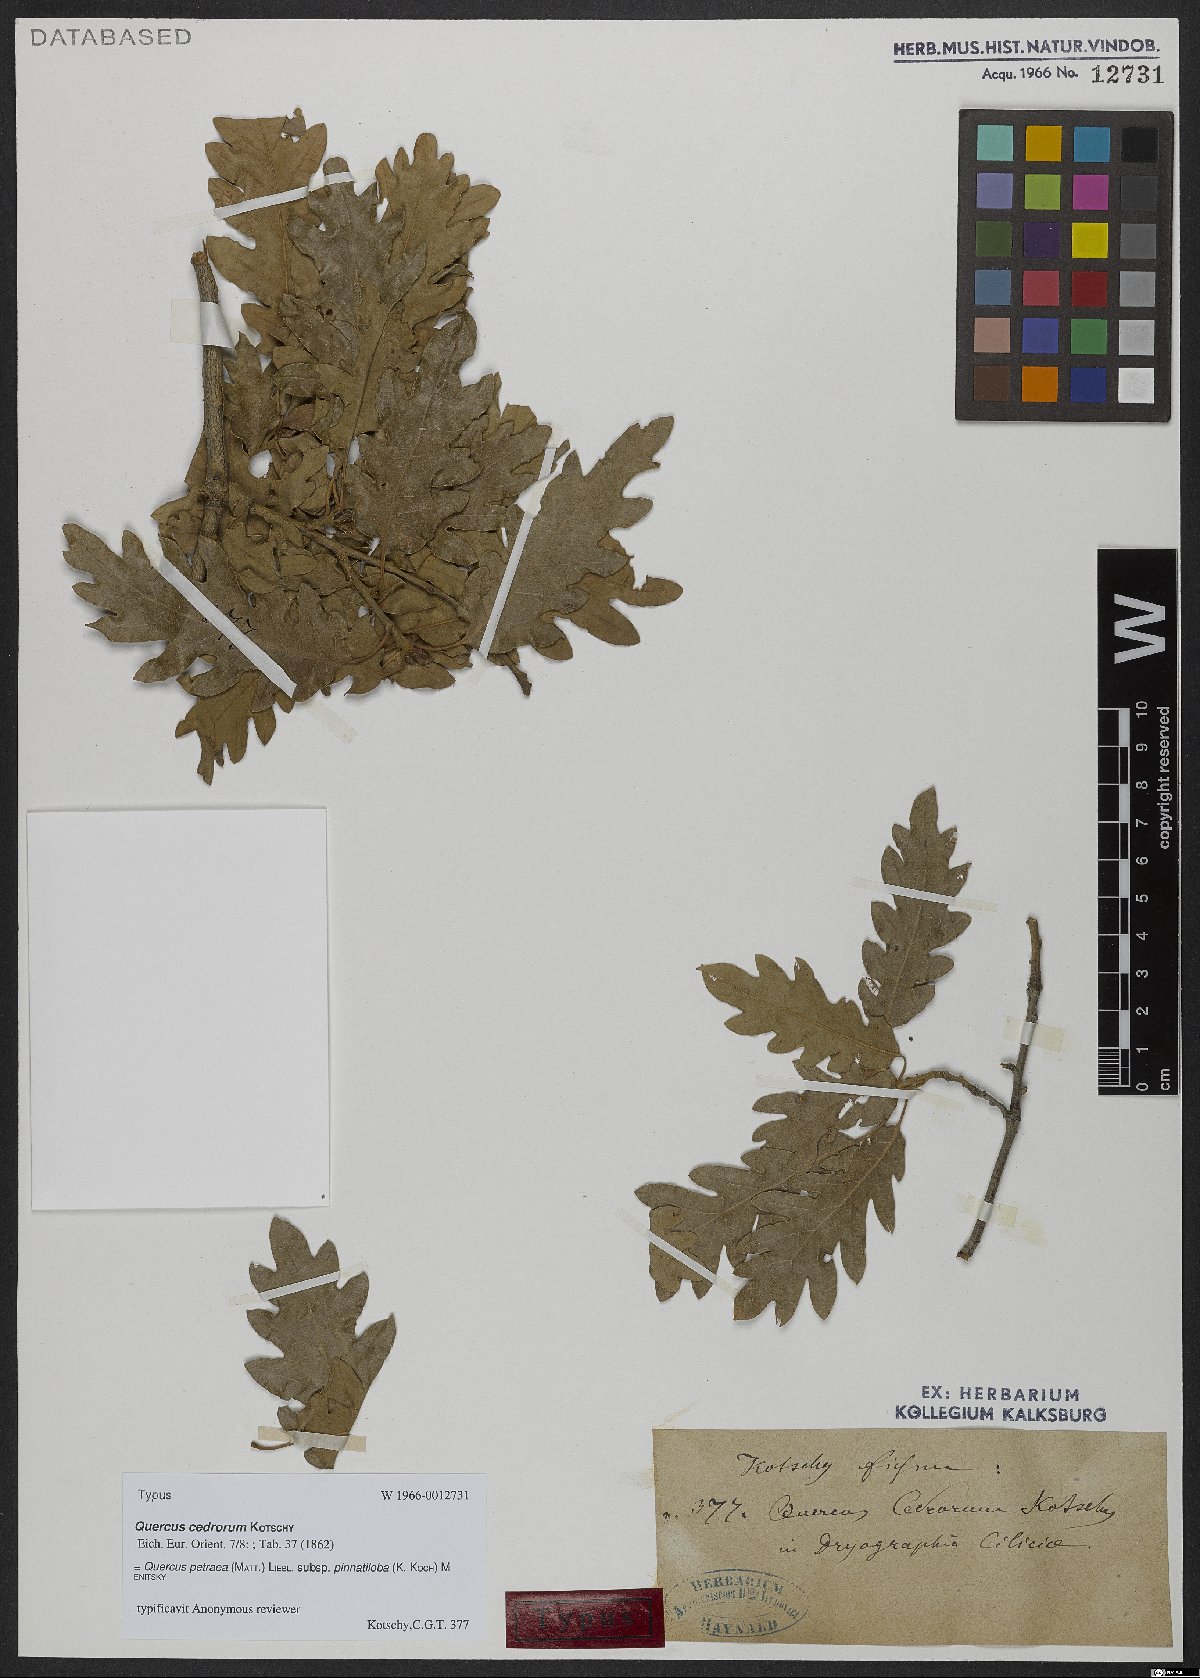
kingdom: Plantae
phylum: Tracheophyta
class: Magnoliopsida
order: Fagales
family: Fagaceae
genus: Quercus
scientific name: Quercus petraea
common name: Sessile oak
